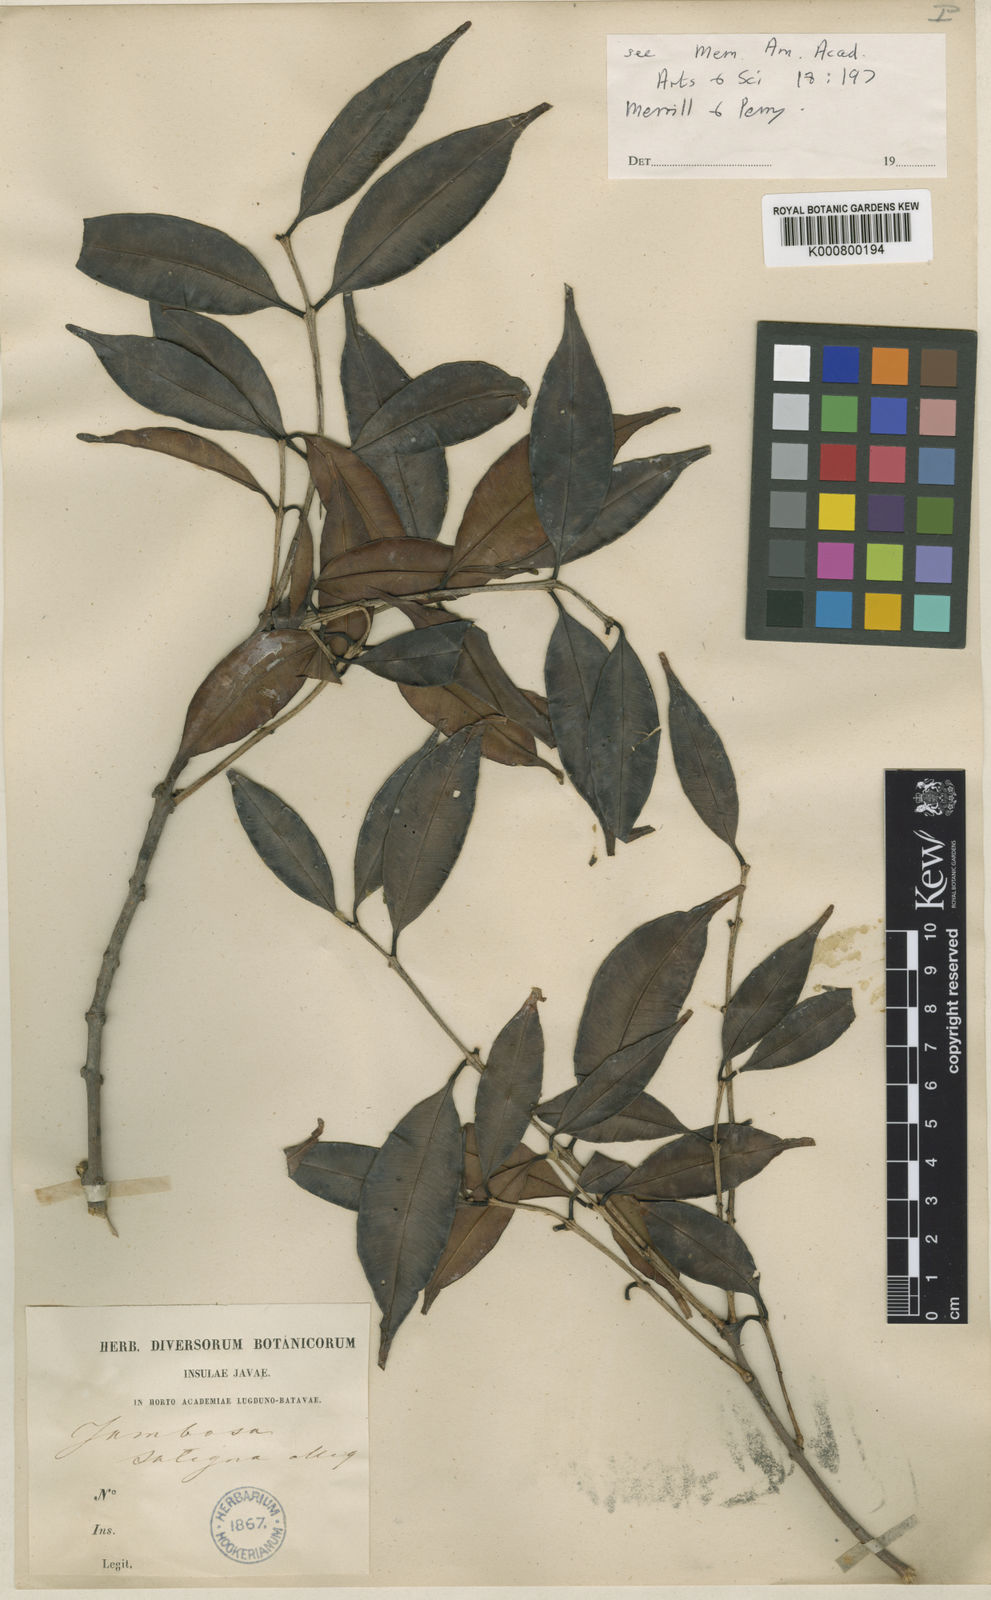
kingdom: Plantae
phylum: Tracheophyta
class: Magnoliopsida
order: Myrtales
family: Myrtaceae
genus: Syzygium
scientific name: Syzygium salignum
